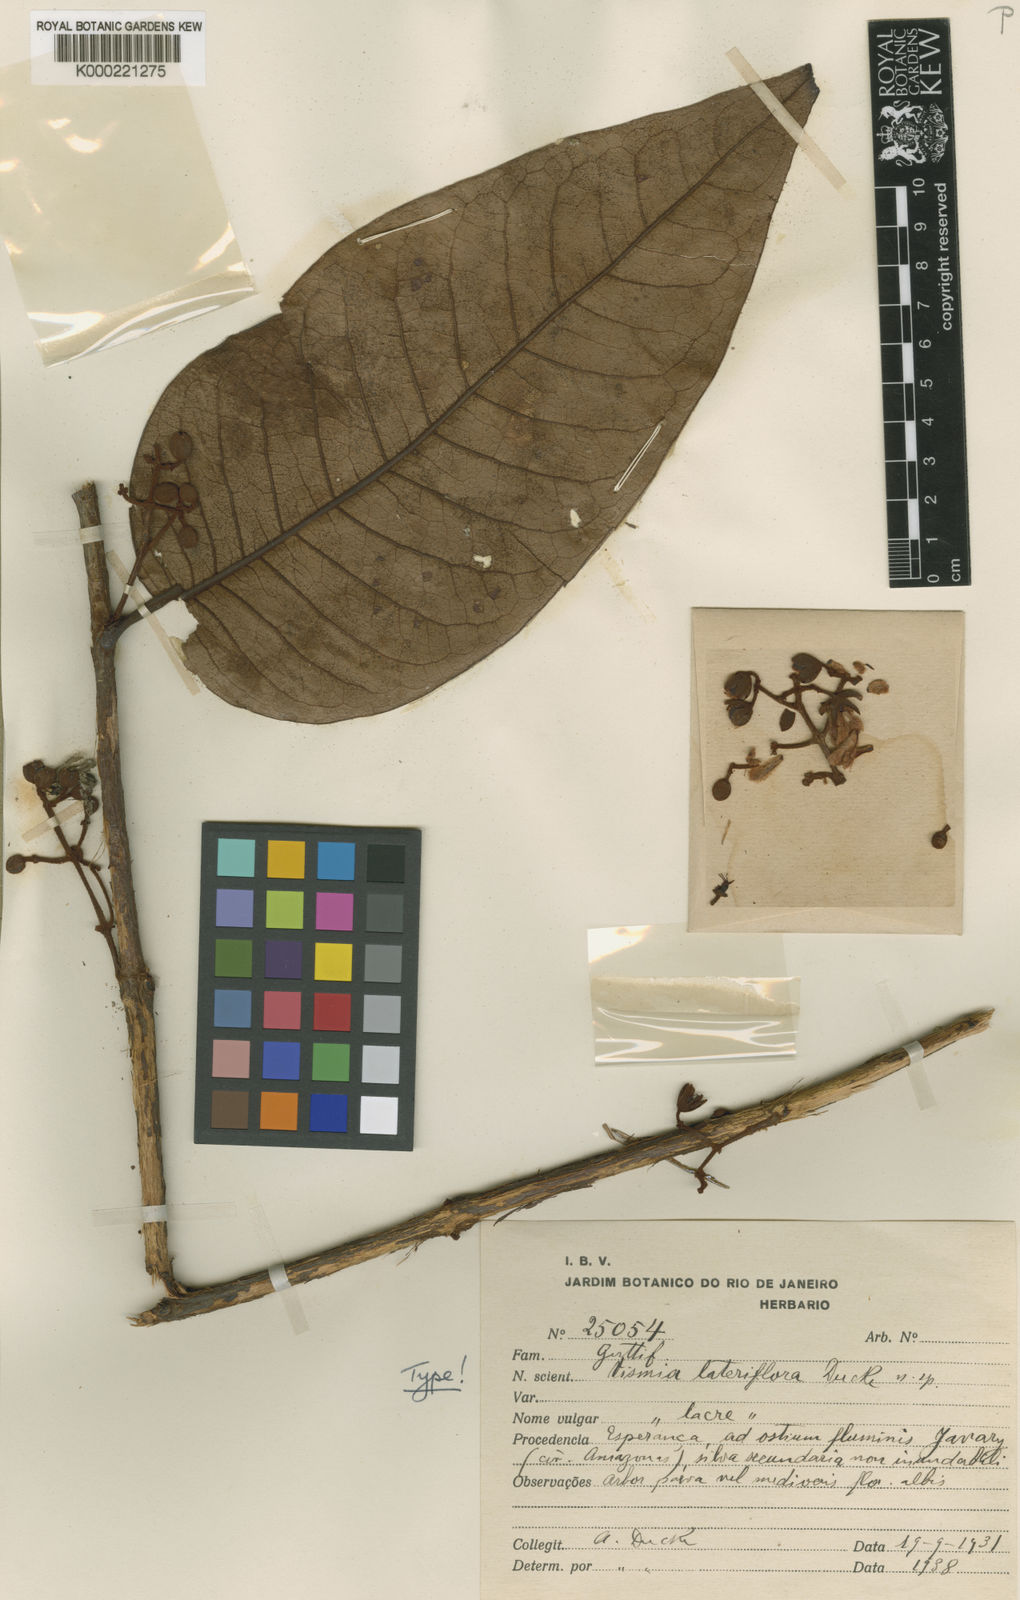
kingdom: Plantae
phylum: Tracheophyta
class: Magnoliopsida
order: Malpighiales
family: Hypericaceae
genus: Vismia
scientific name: Vismia lateriflora
